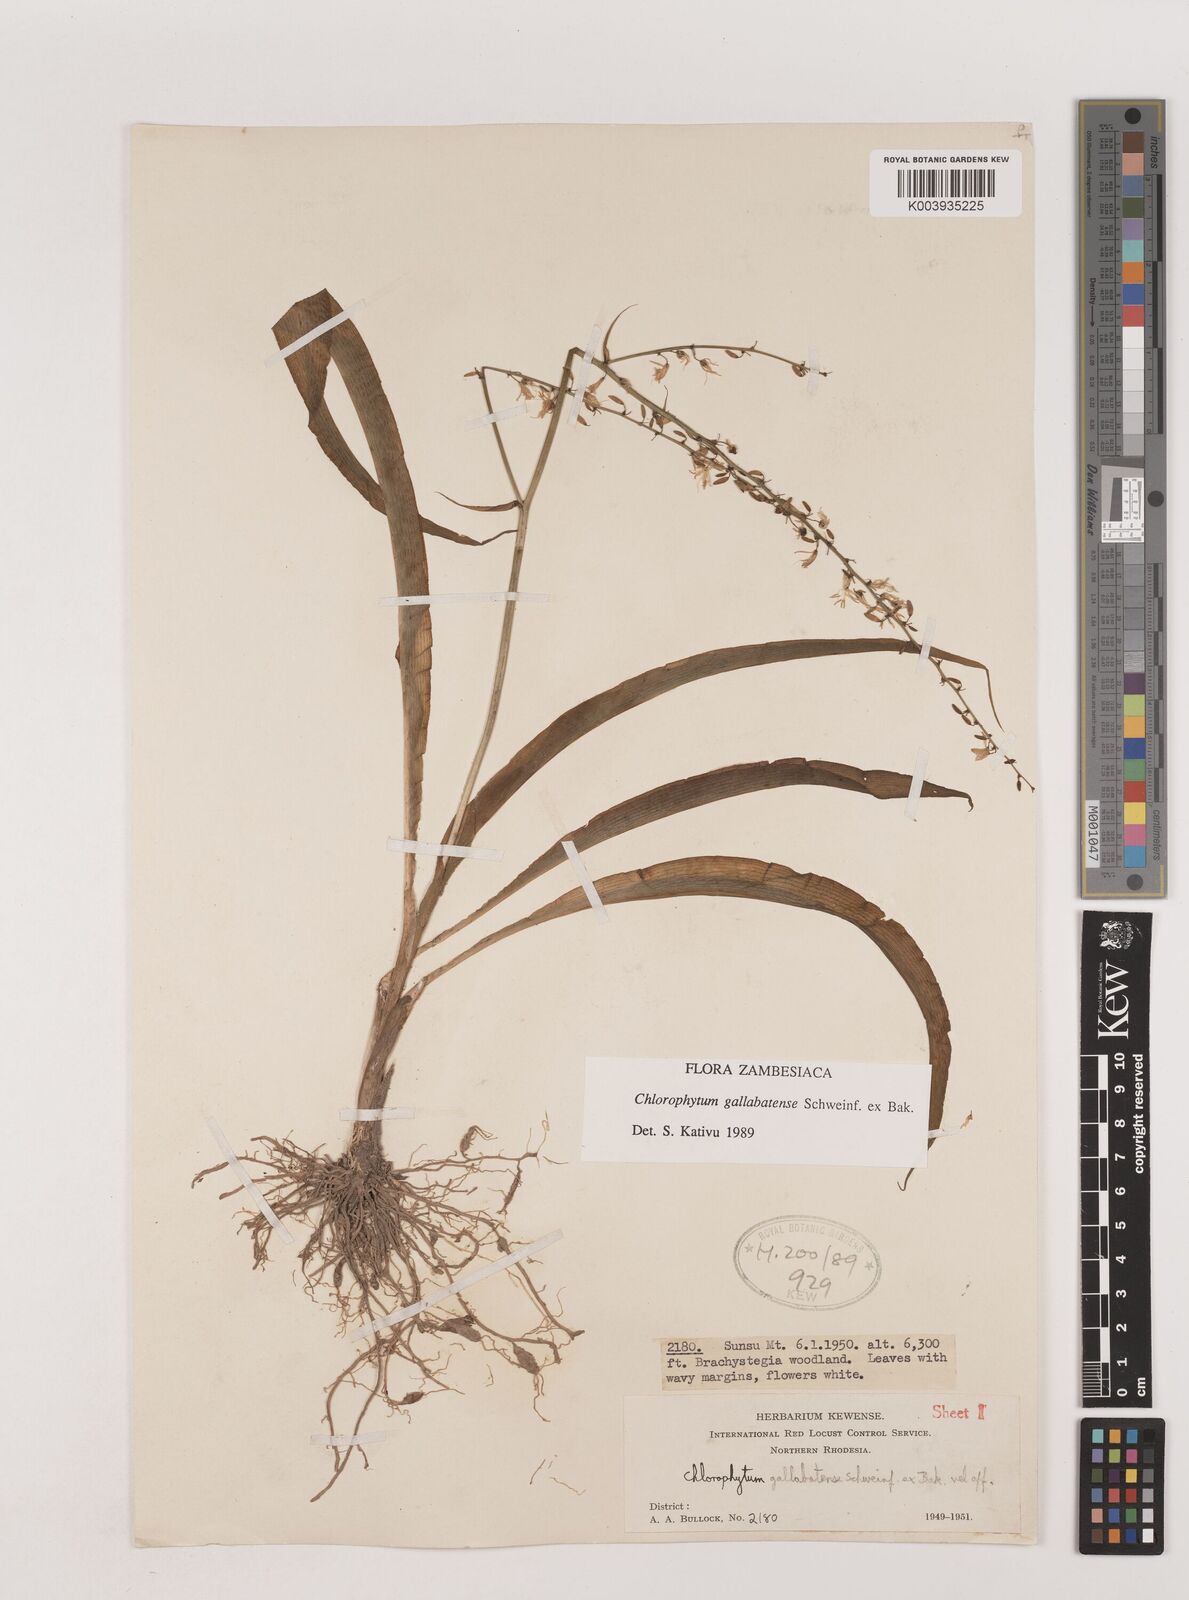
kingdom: Plantae
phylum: Tracheophyta
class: Liliopsida
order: Asparagales
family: Asparagaceae
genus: Chlorophytum
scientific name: Chlorophytum gallabatense
